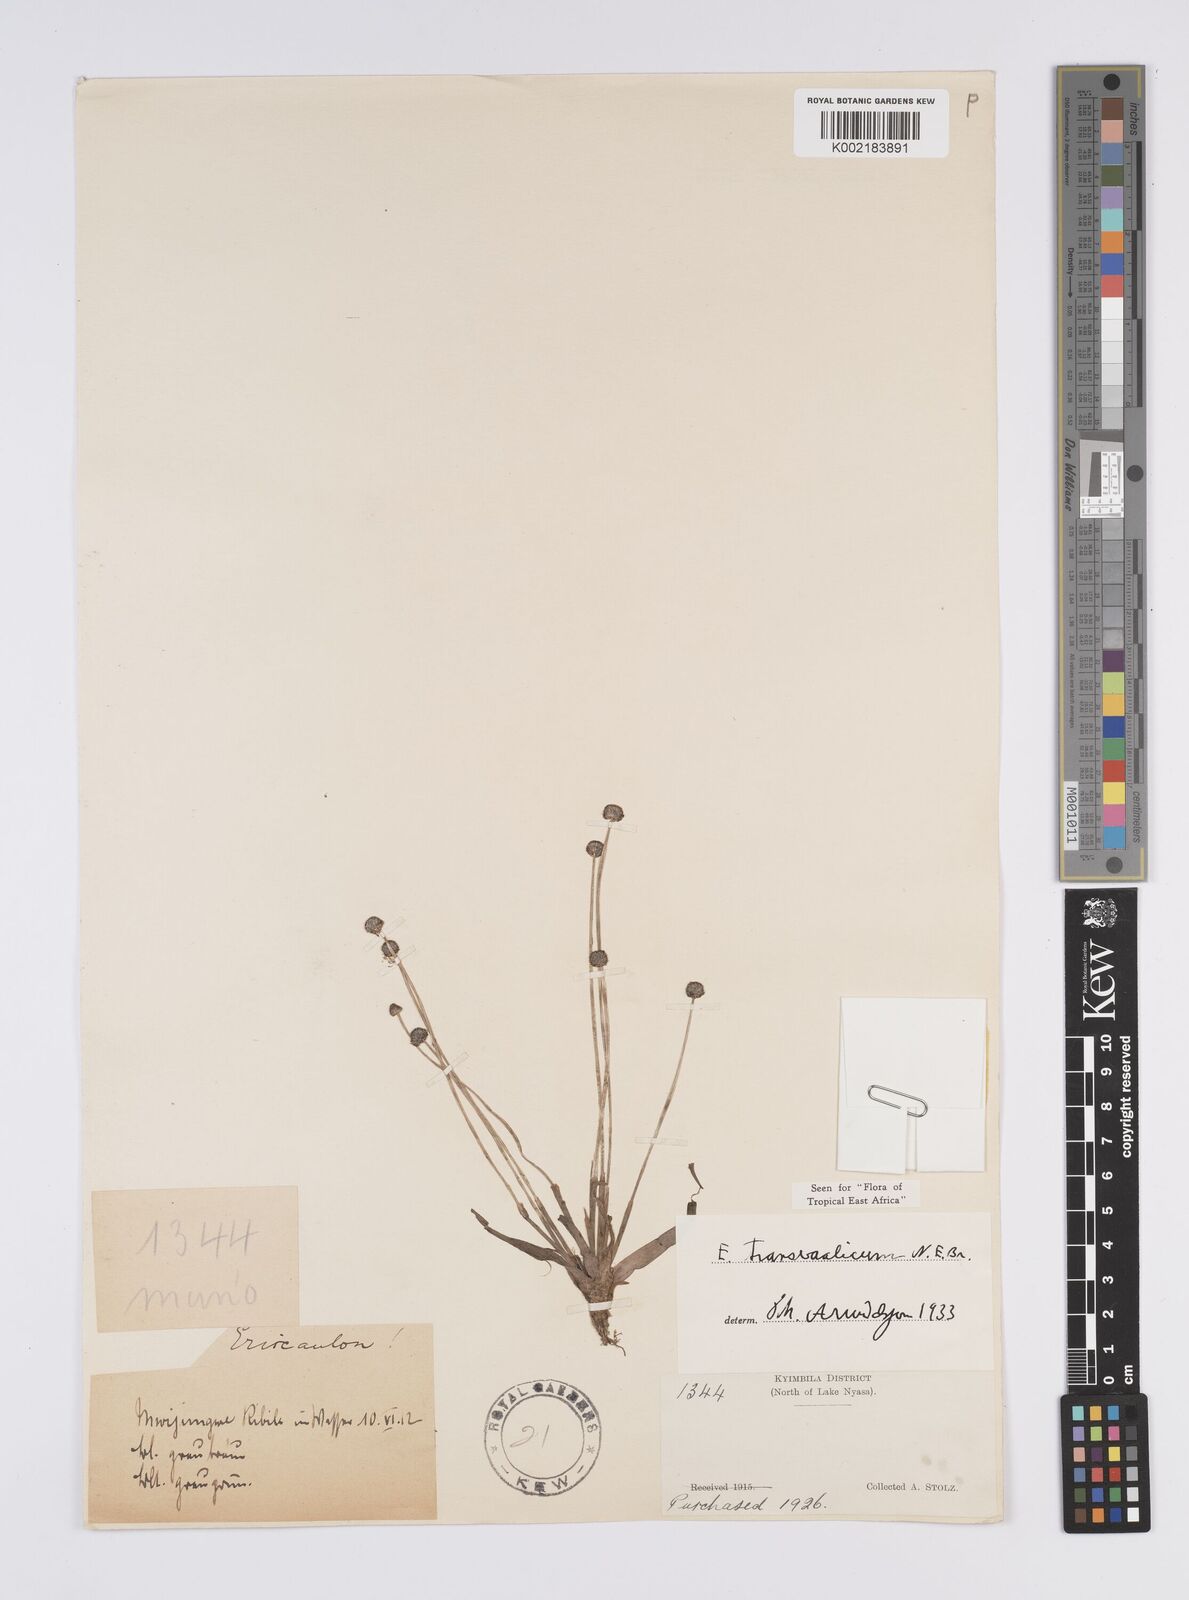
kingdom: Plantae
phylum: Tracheophyta
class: Liliopsida
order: Poales
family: Eriocaulaceae
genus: Eriocaulon
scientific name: Eriocaulon transvaalicum
